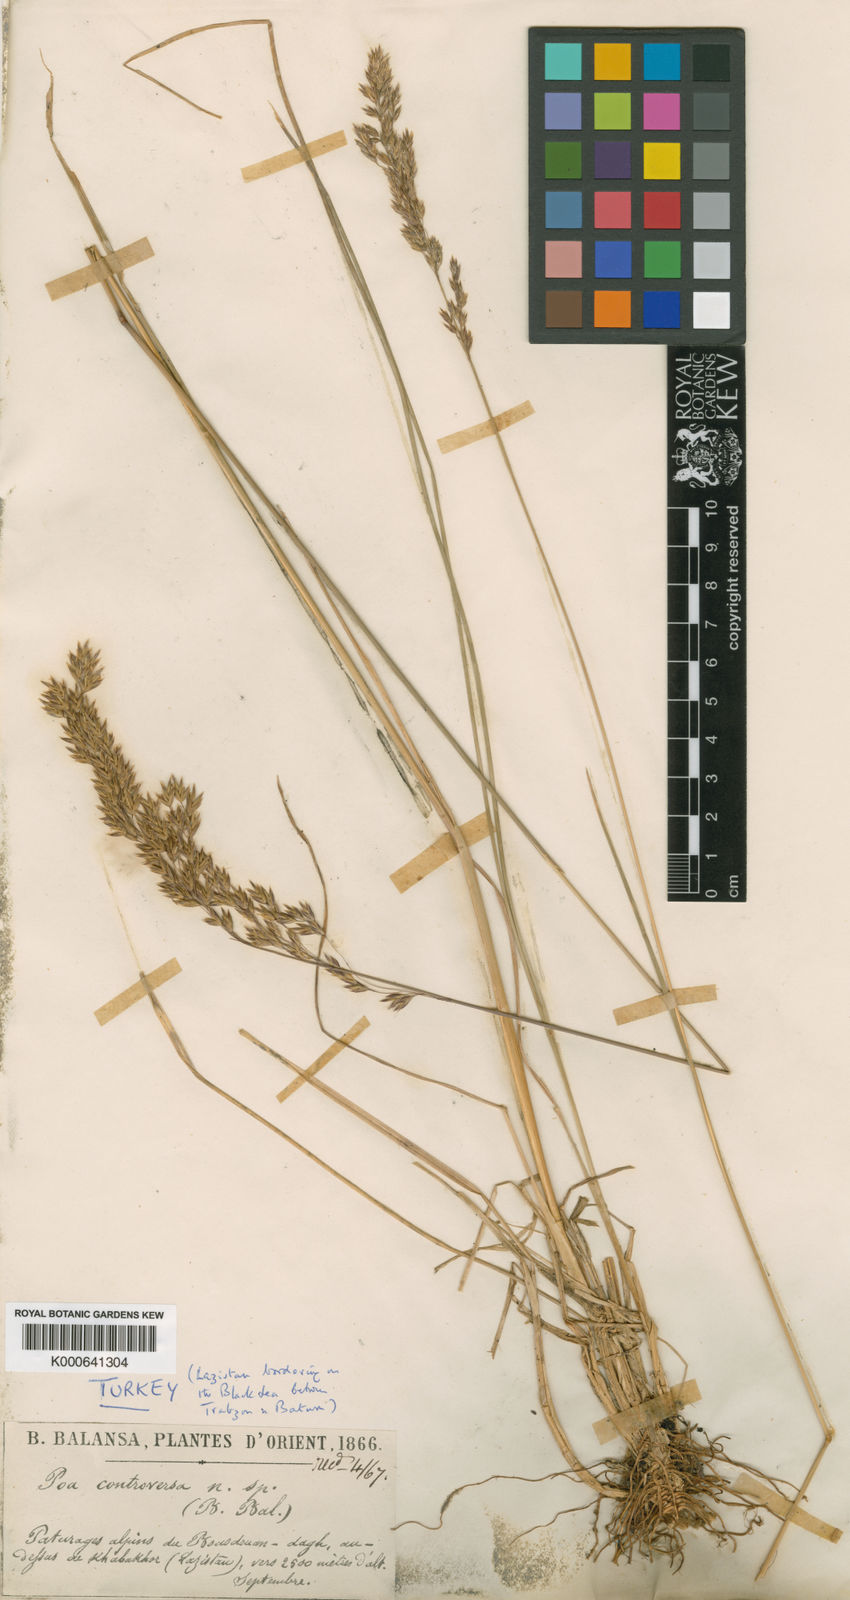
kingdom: Plantae
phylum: Tracheophyta
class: Liliopsida
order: Poales
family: Poaceae
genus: Poa
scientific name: Poa longifolia
